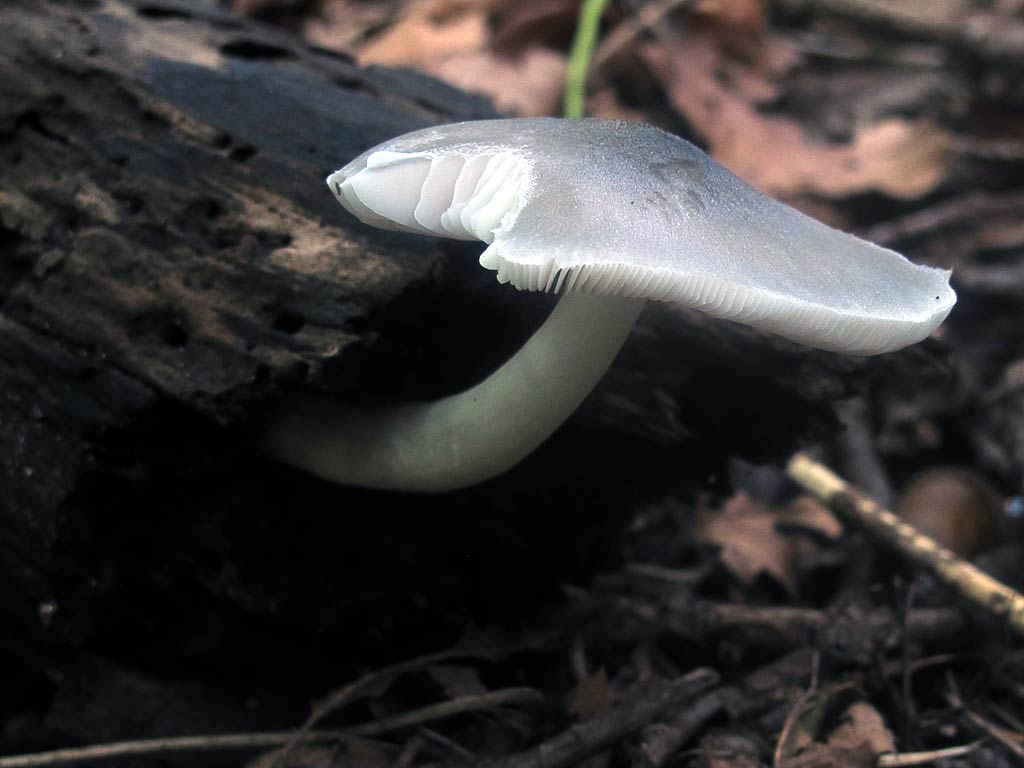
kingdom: Fungi
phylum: Basidiomycota
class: Agaricomycetes
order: Agaricales
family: Pluteaceae
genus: Pluteus
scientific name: Pluteus salicinus
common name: stiv skærmhat
